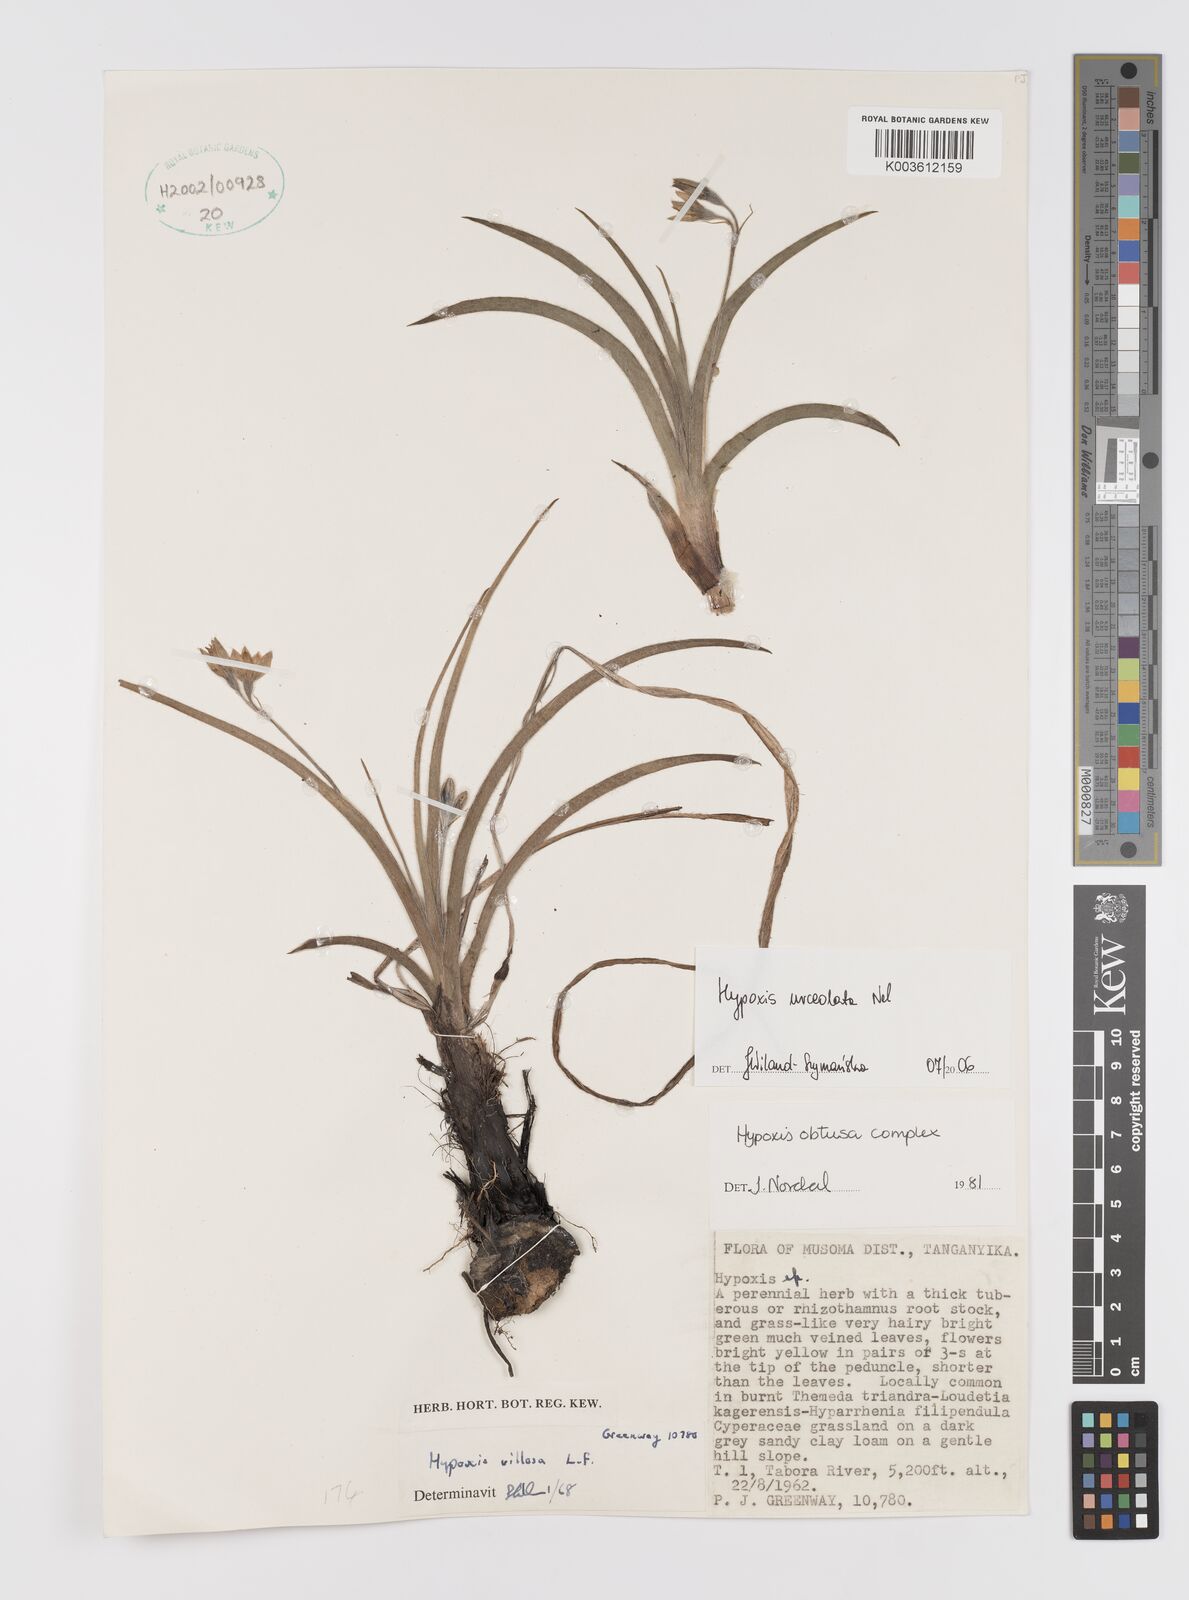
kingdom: Plantae
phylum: Tracheophyta
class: Liliopsida
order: Asparagales
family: Hypoxidaceae
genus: Hypoxis
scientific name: Hypoxis urceolata
